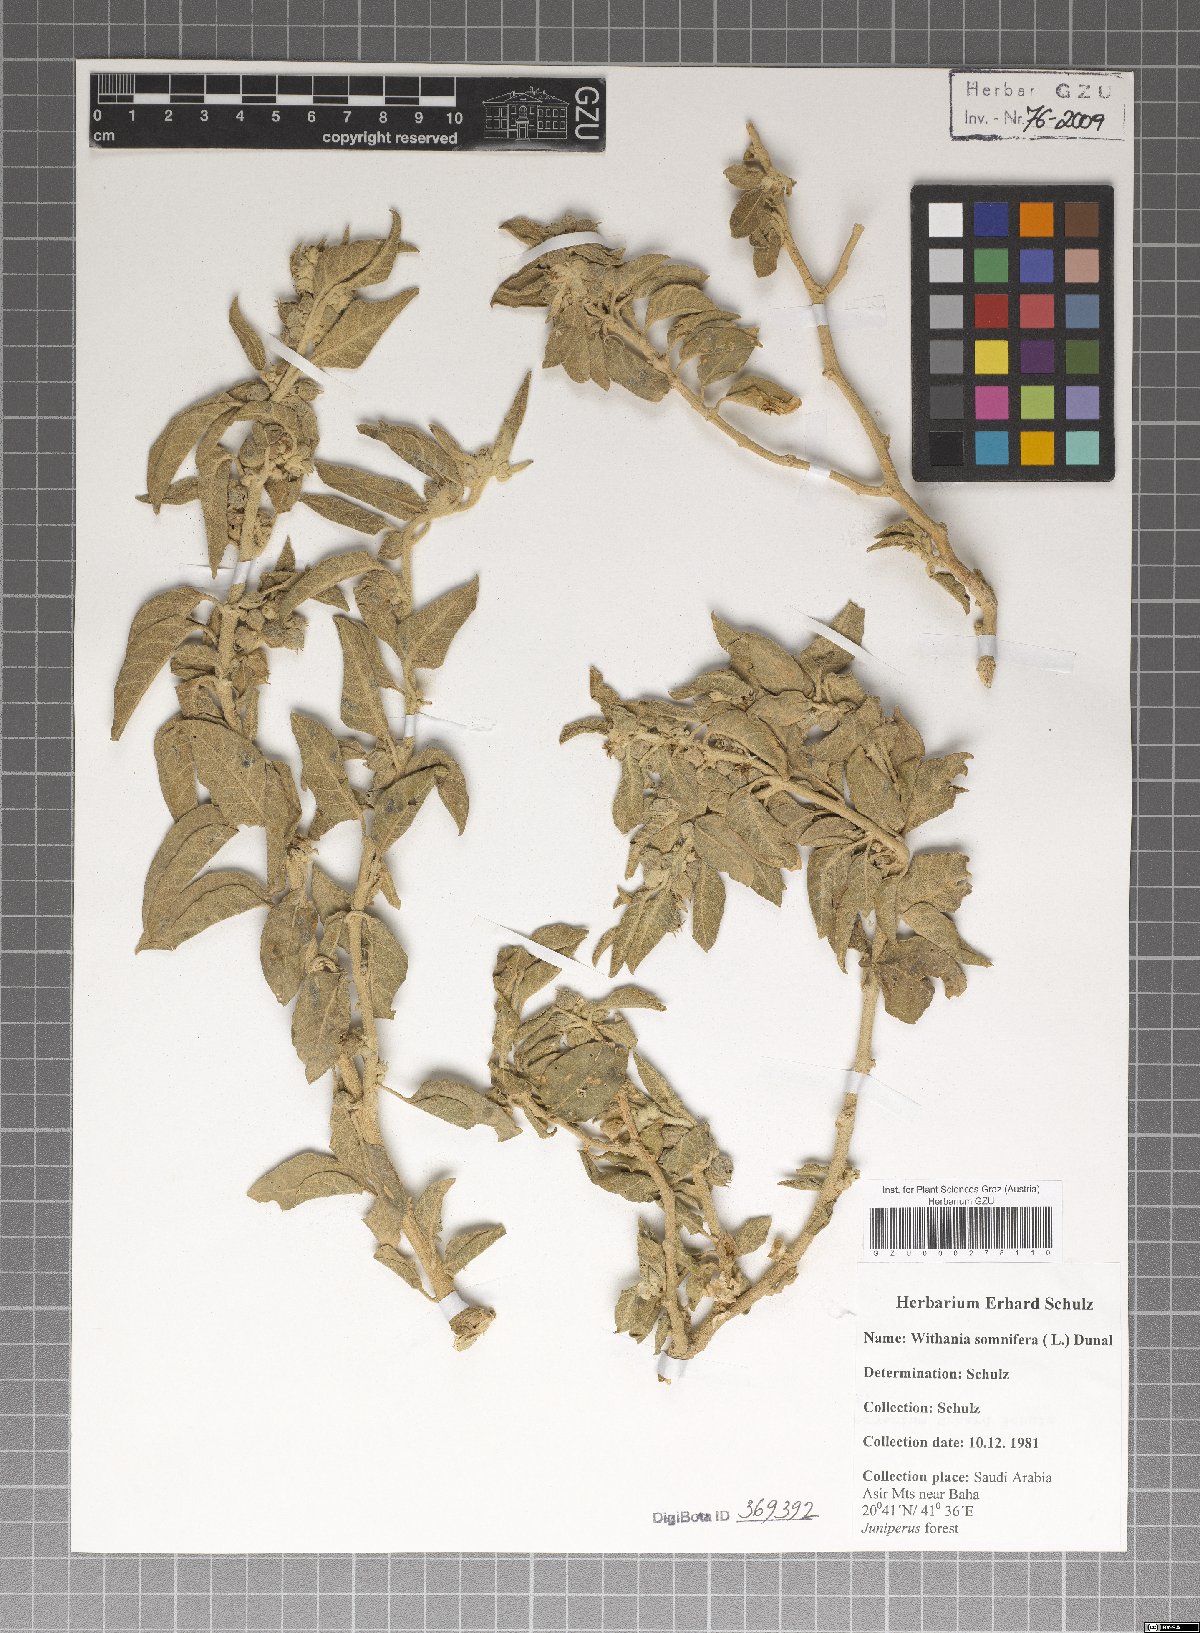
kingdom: Plantae
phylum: Tracheophyta
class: Magnoliopsida
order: Solanales
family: Solanaceae
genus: Withania
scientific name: Withania somnifera
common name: Winter-cherry
